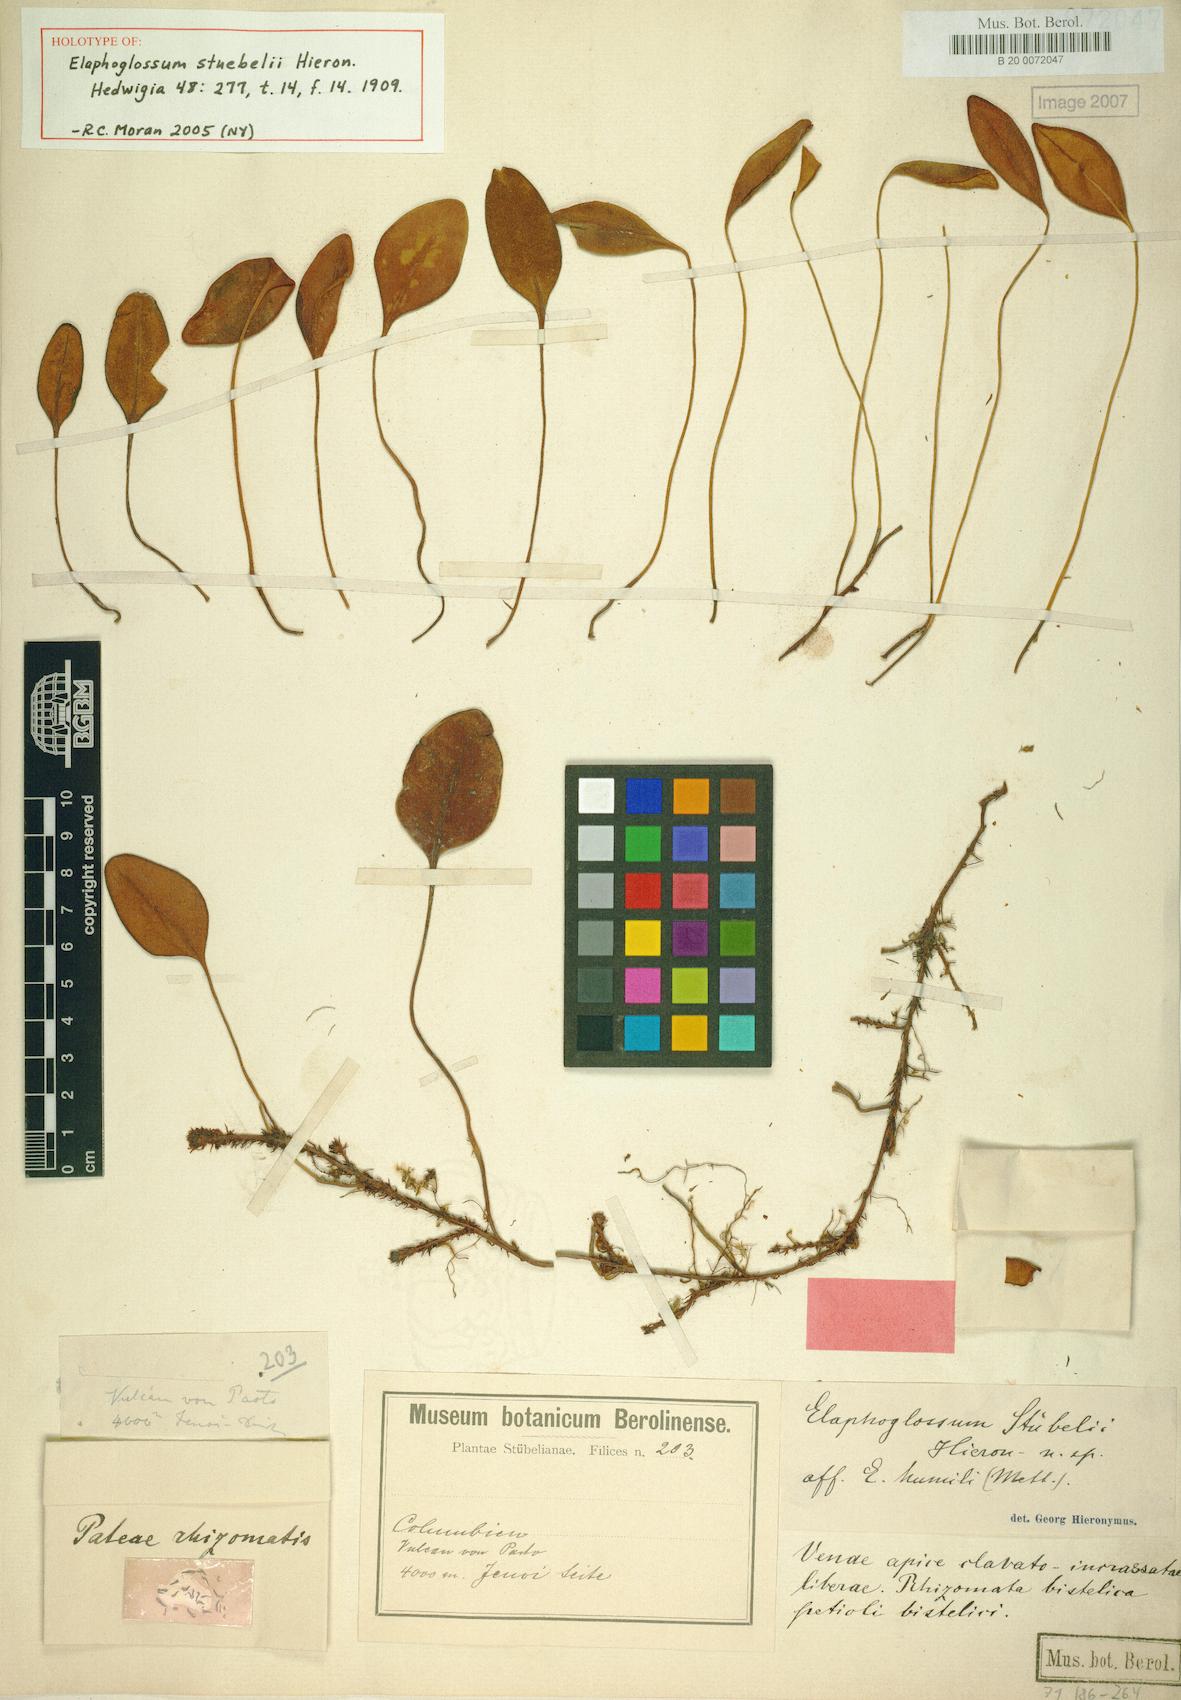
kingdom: Plantae
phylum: Tracheophyta
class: Polypodiopsida
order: Polypodiales
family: Dryopteridaceae
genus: Elaphoglossum
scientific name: Elaphoglossum stuebelii
